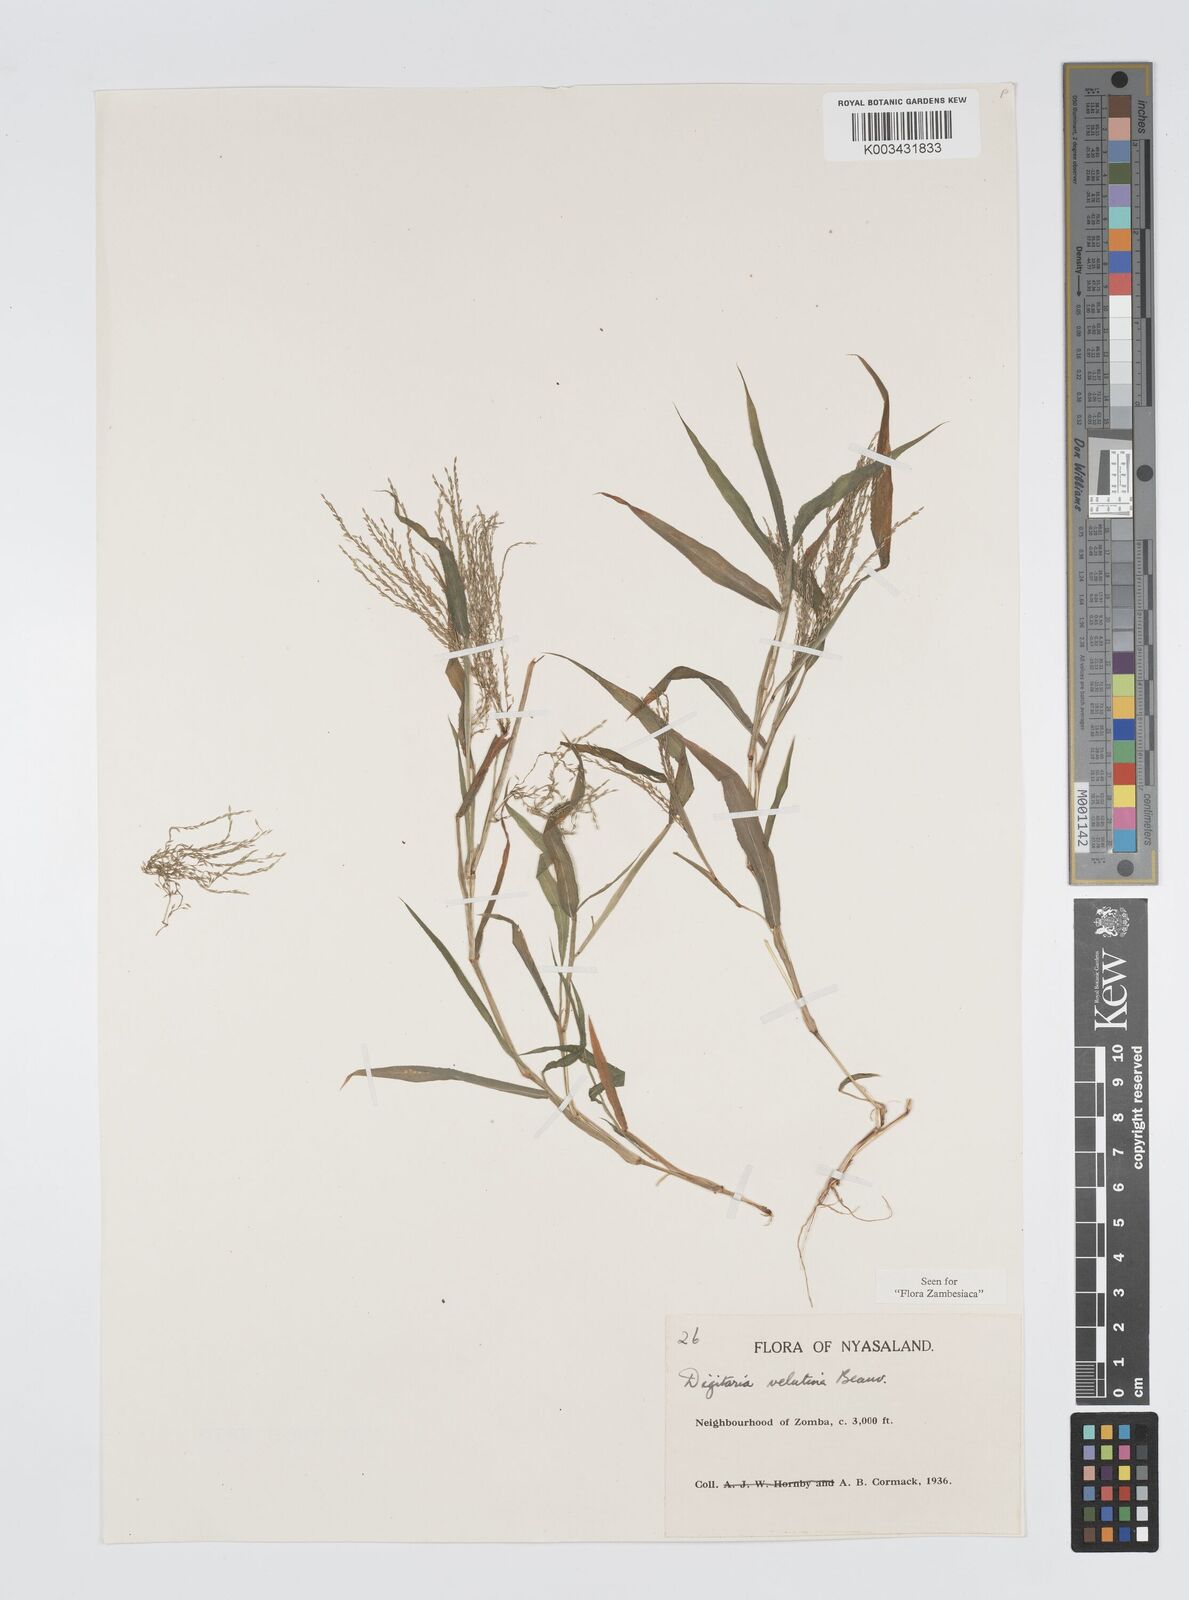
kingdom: Plantae
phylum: Tracheophyta
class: Liliopsida
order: Poales
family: Poaceae
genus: Digitaria
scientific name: Digitaria velutina
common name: Long-plume finger grass
